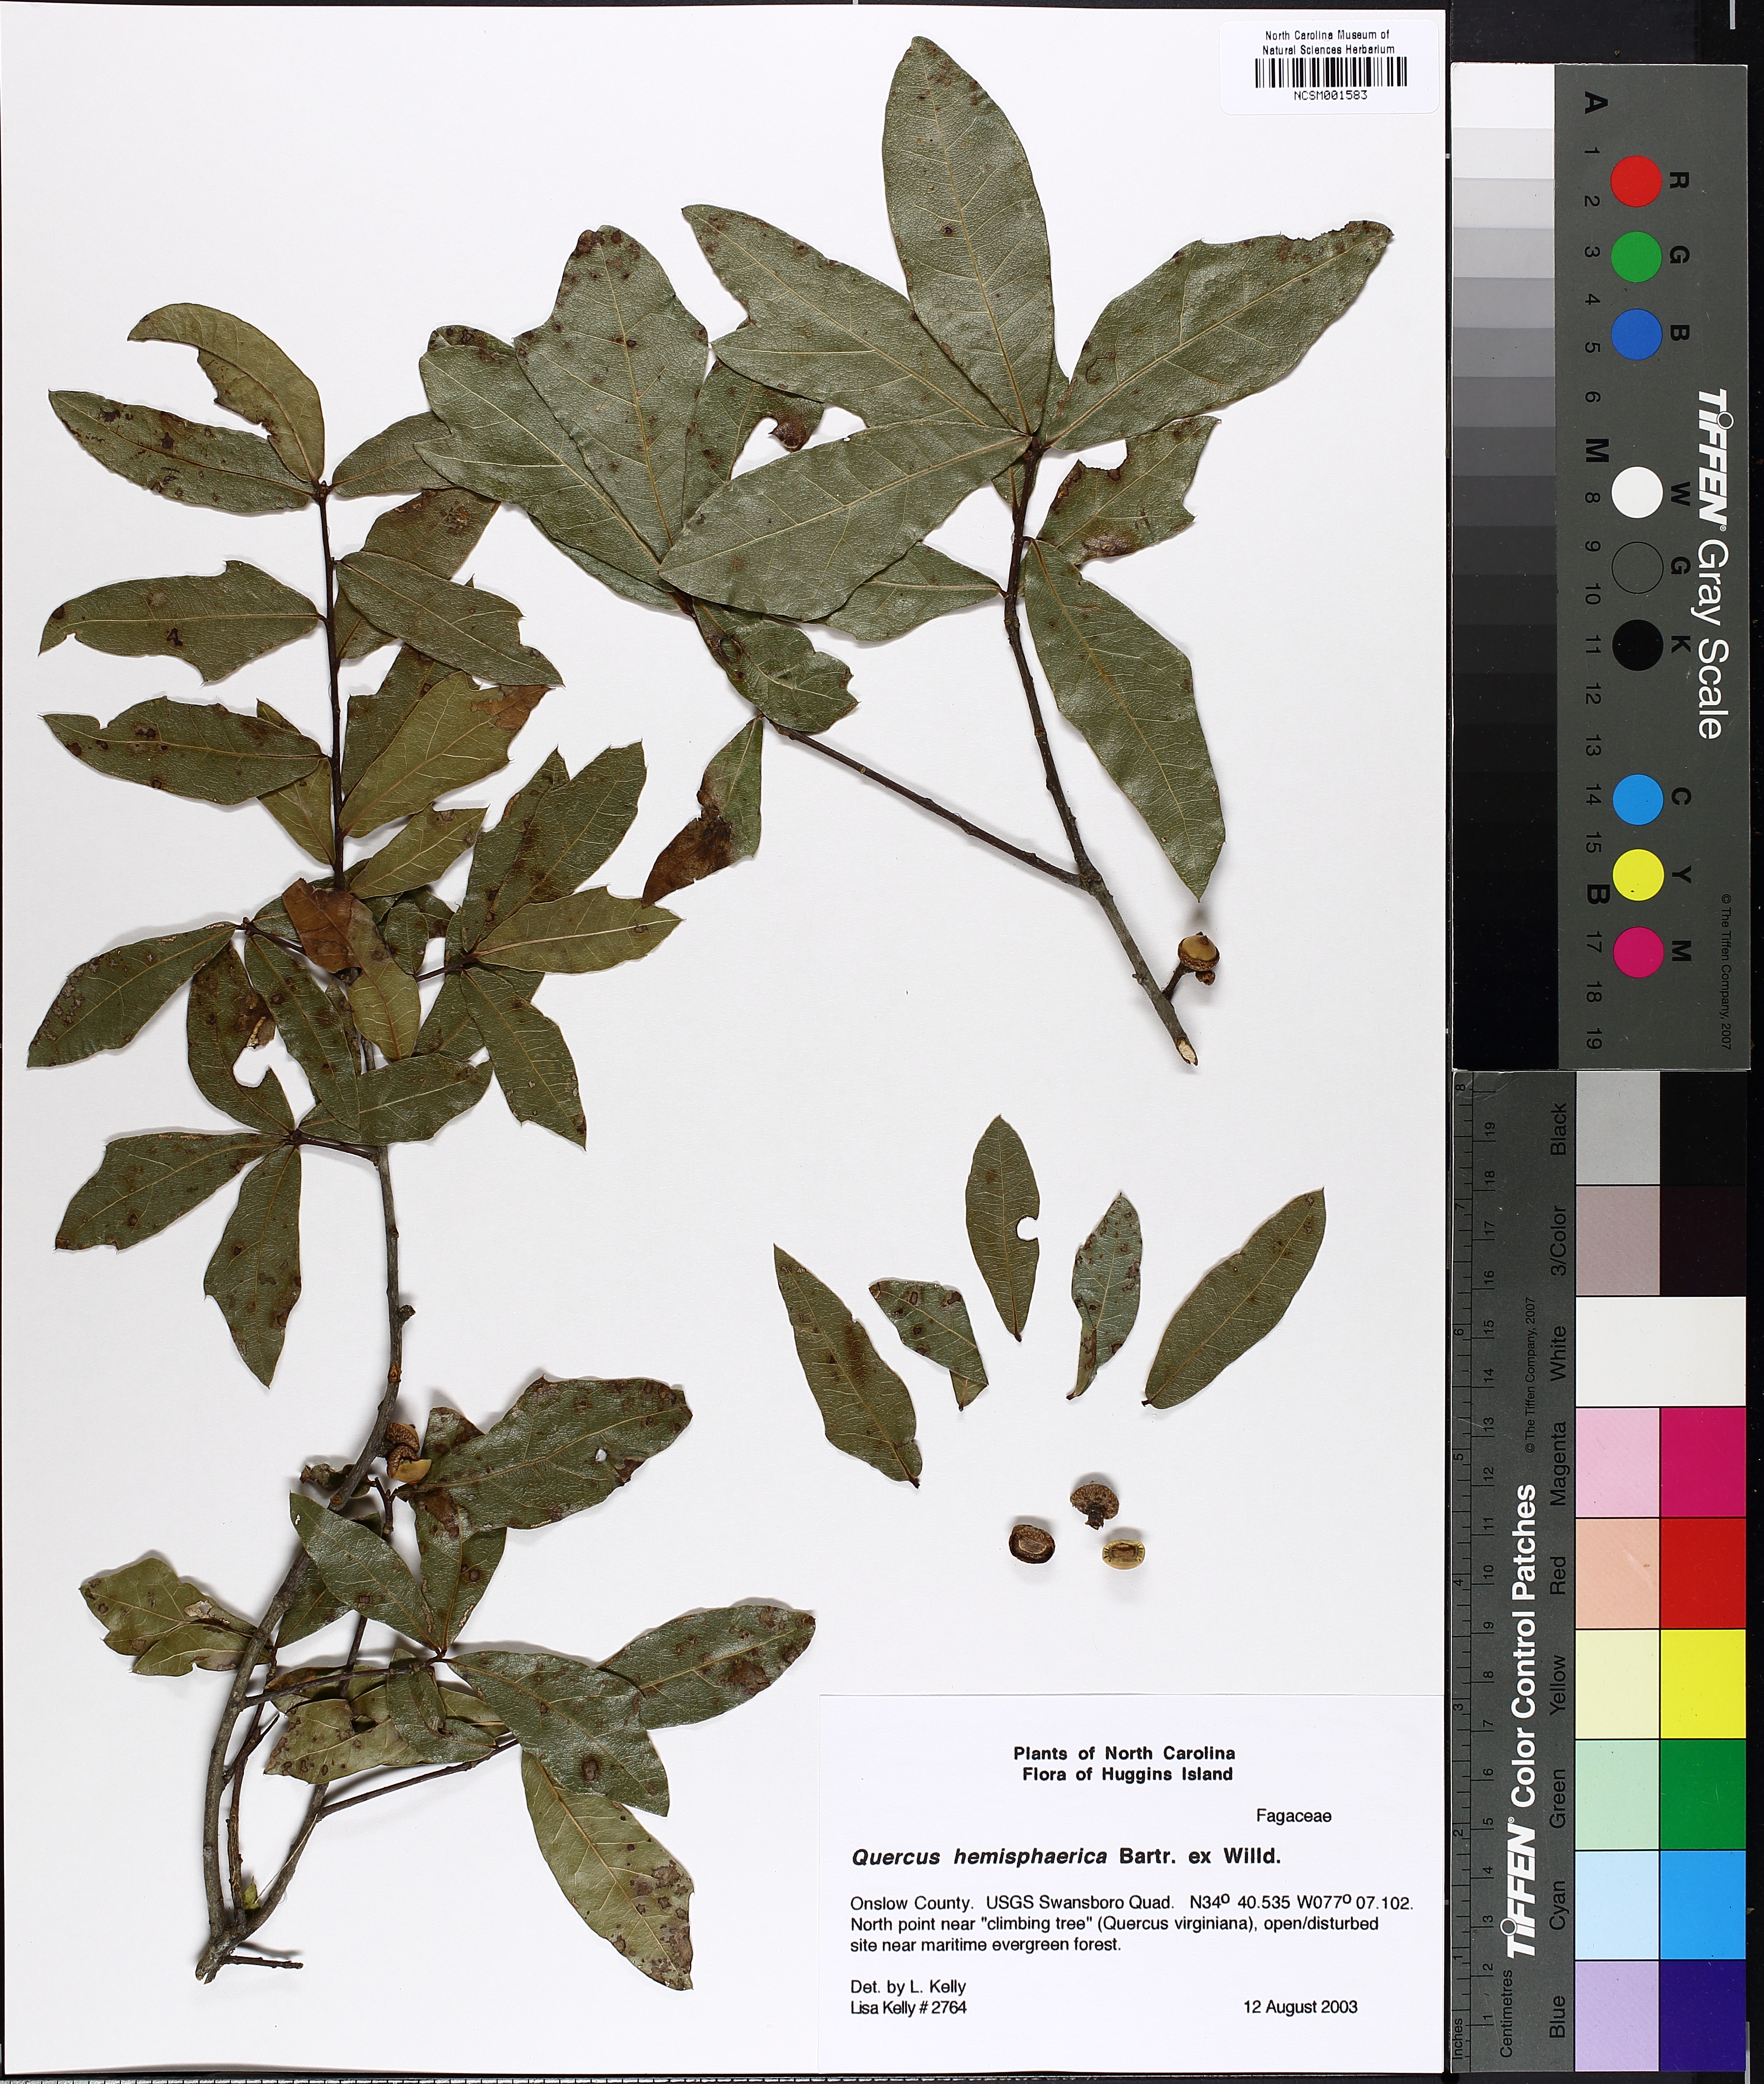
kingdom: Plantae
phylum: Tracheophyta
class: Magnoliopsida
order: Fagales
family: Fagaceae
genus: Quercus
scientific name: Quercus hemisphaerica
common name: Darlington oak
